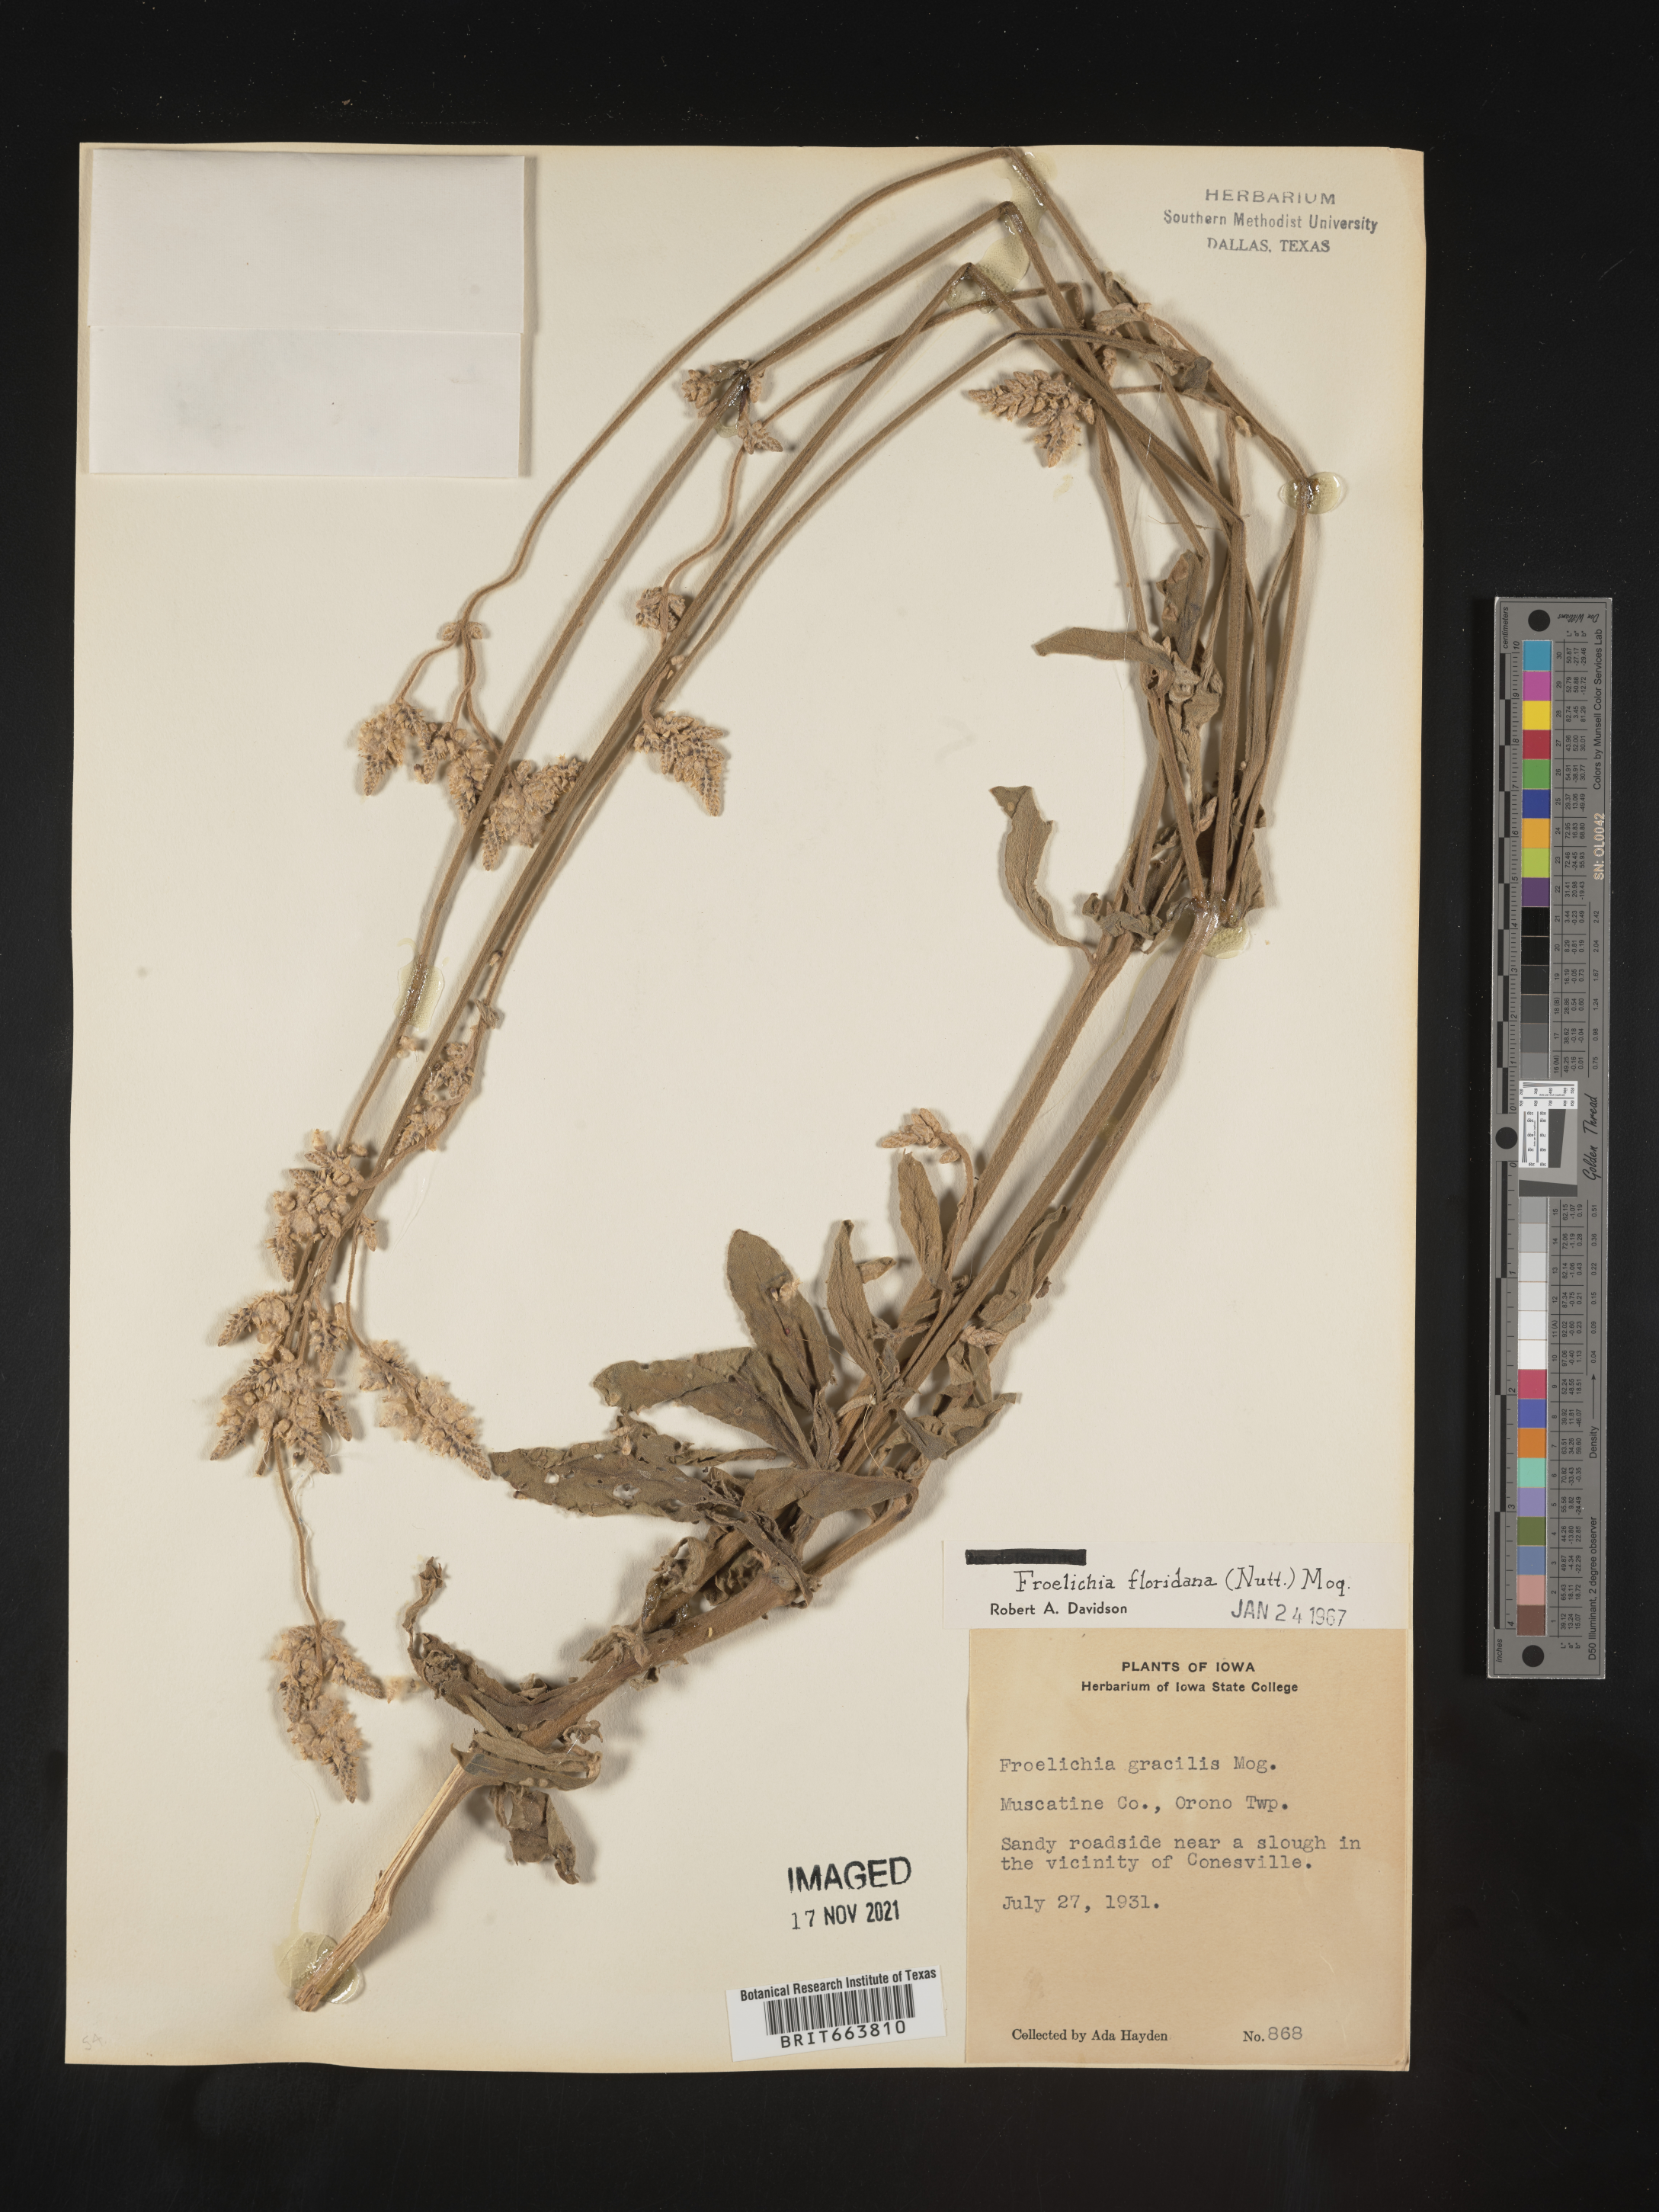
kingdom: Plantae
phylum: Tracheophyta
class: Magnoliopsida
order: Caryophyllales
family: Amaranthaceae
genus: Froelichia
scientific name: Froelichia floridana
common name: Florida snake-cotton
